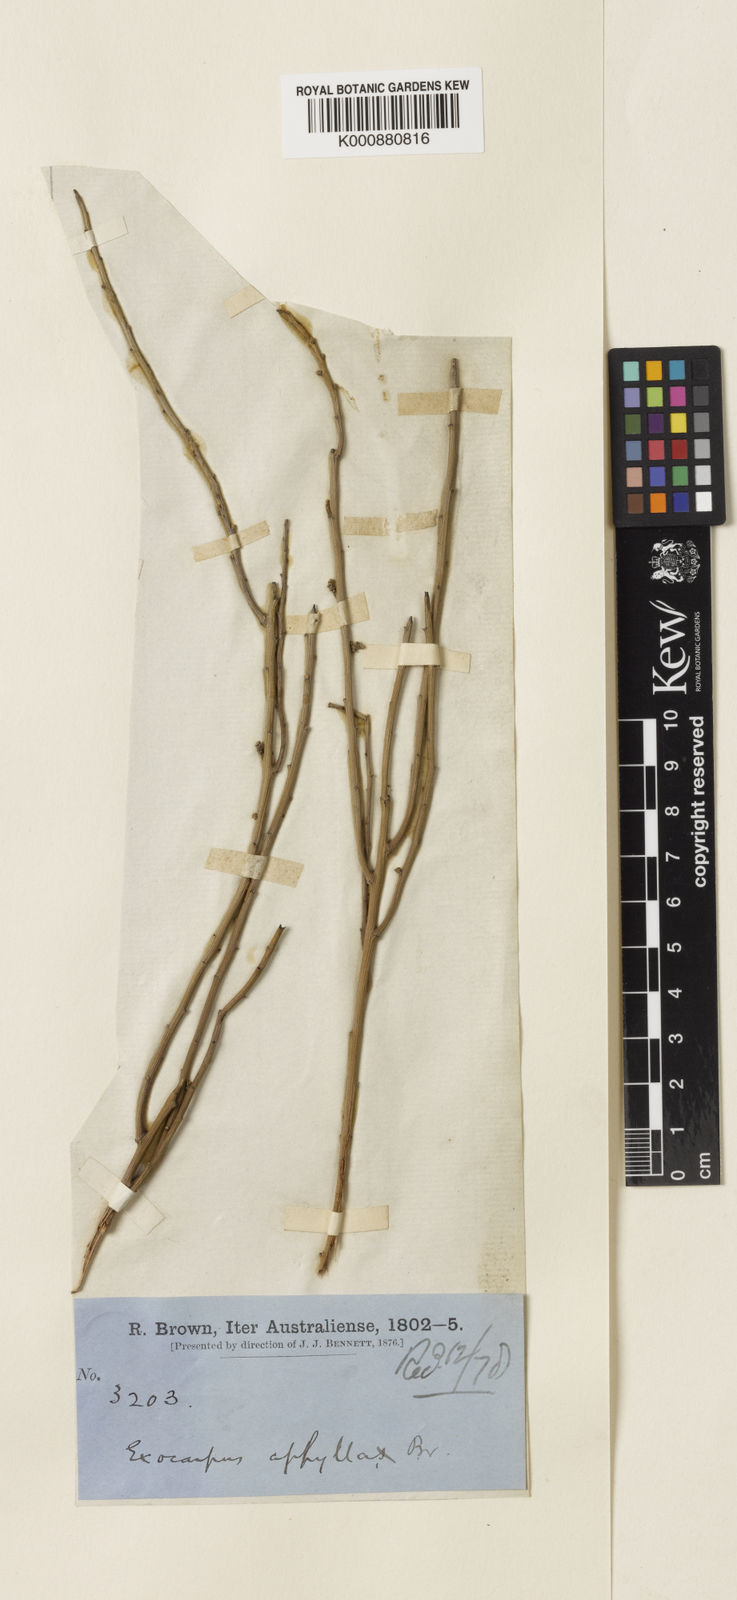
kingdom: Plantae
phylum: Tracheophyta
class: Magnoliopsida
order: Santalales
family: Santalaceae
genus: Exocarpos
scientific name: Exocarpos aphyllus
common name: Leafless ballart
